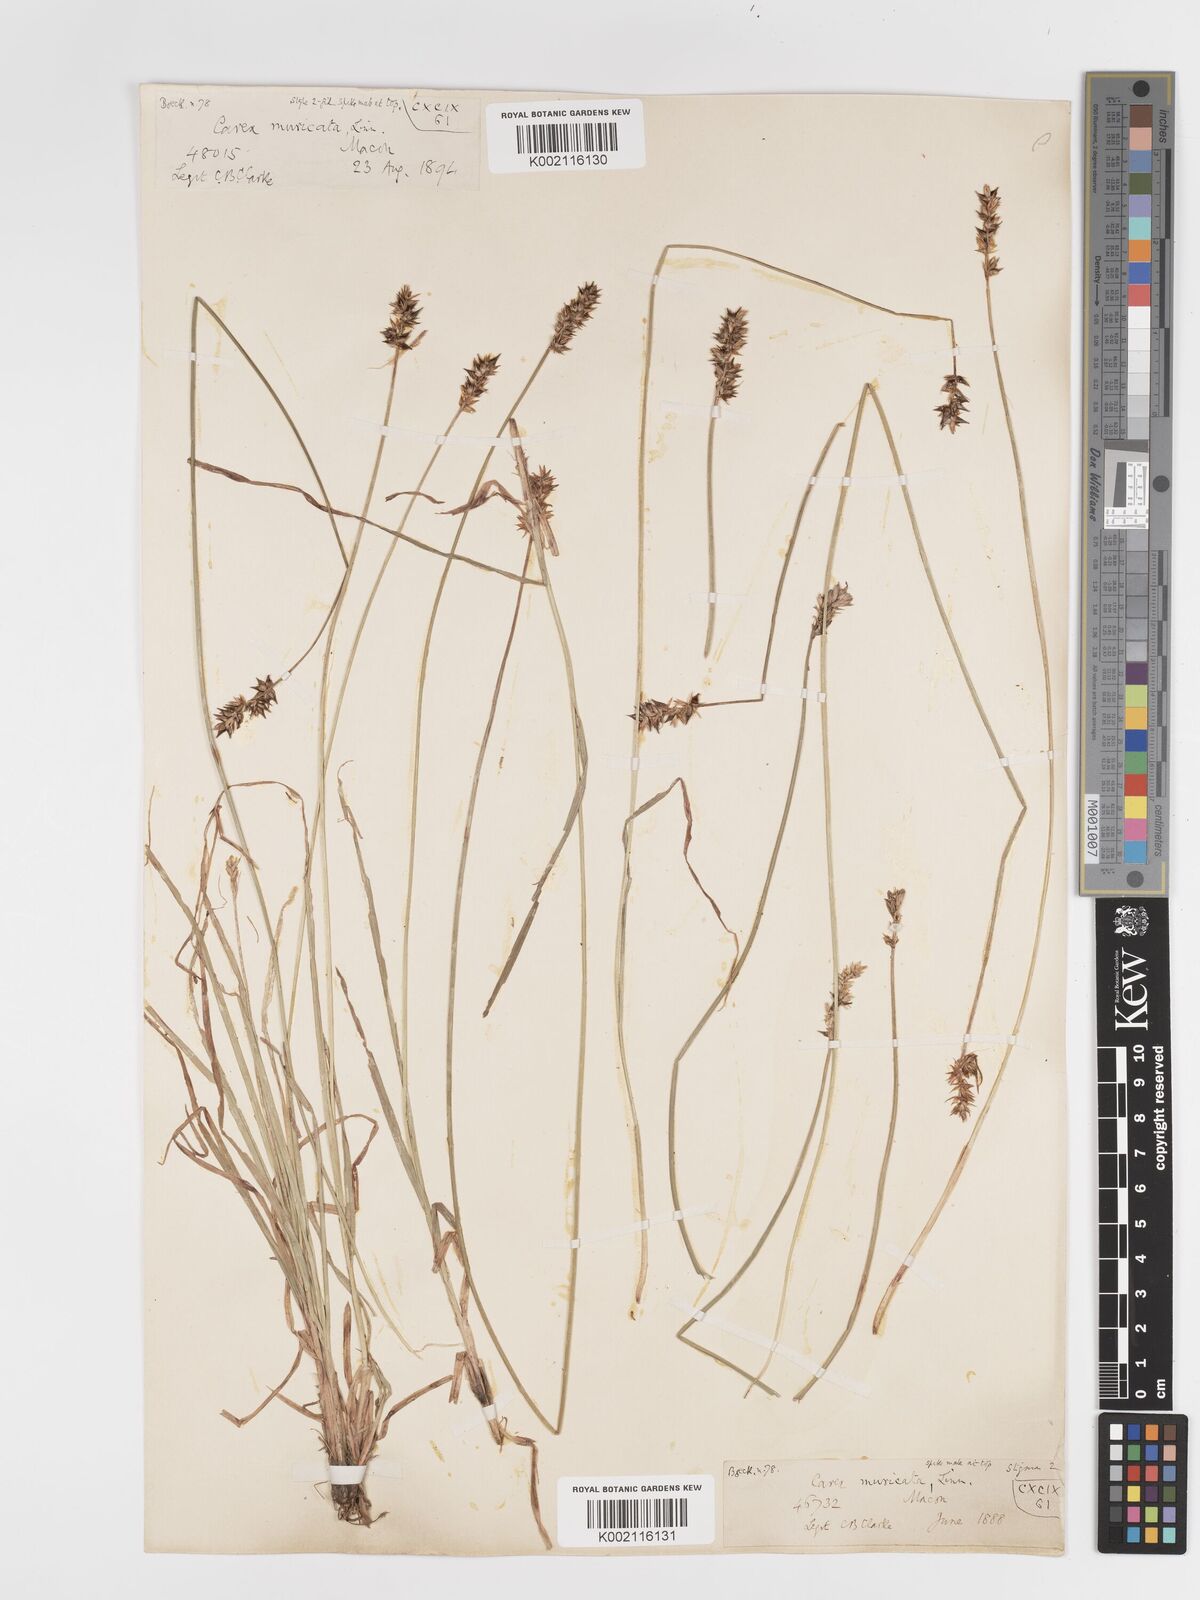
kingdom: Plantae
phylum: Tracheophyta
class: Liliopsida
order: Poales
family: Cyperaceae
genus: Carex
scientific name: Carex spicata
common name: Spiked sedge
